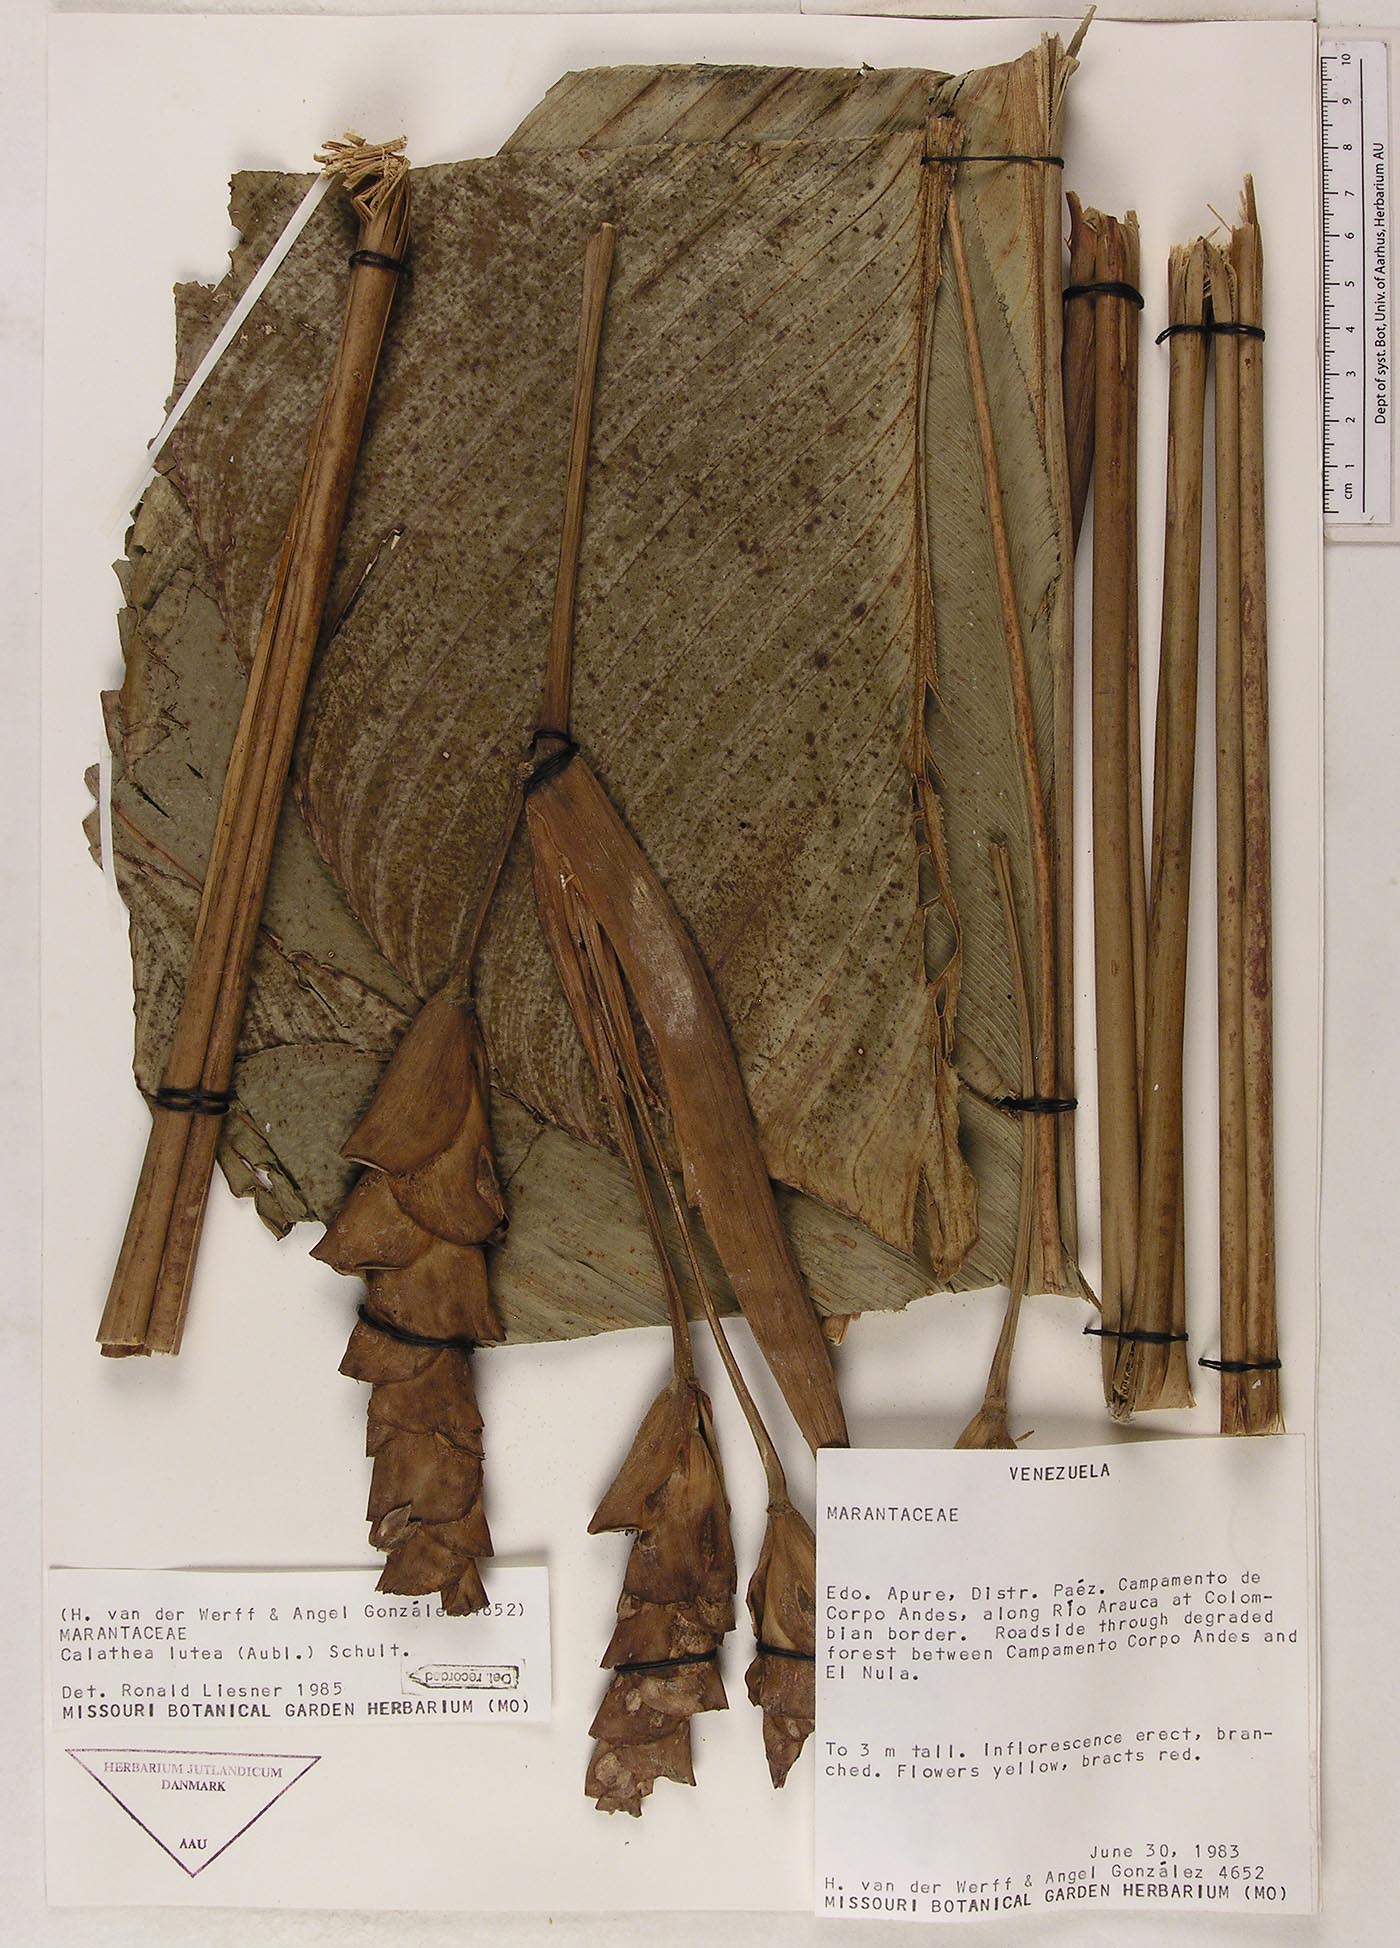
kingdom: Plantae
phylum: Tracheophyta
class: Liliopsida
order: Zingiberales
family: Marantaceae
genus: Calathea
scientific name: Calathea lutea
